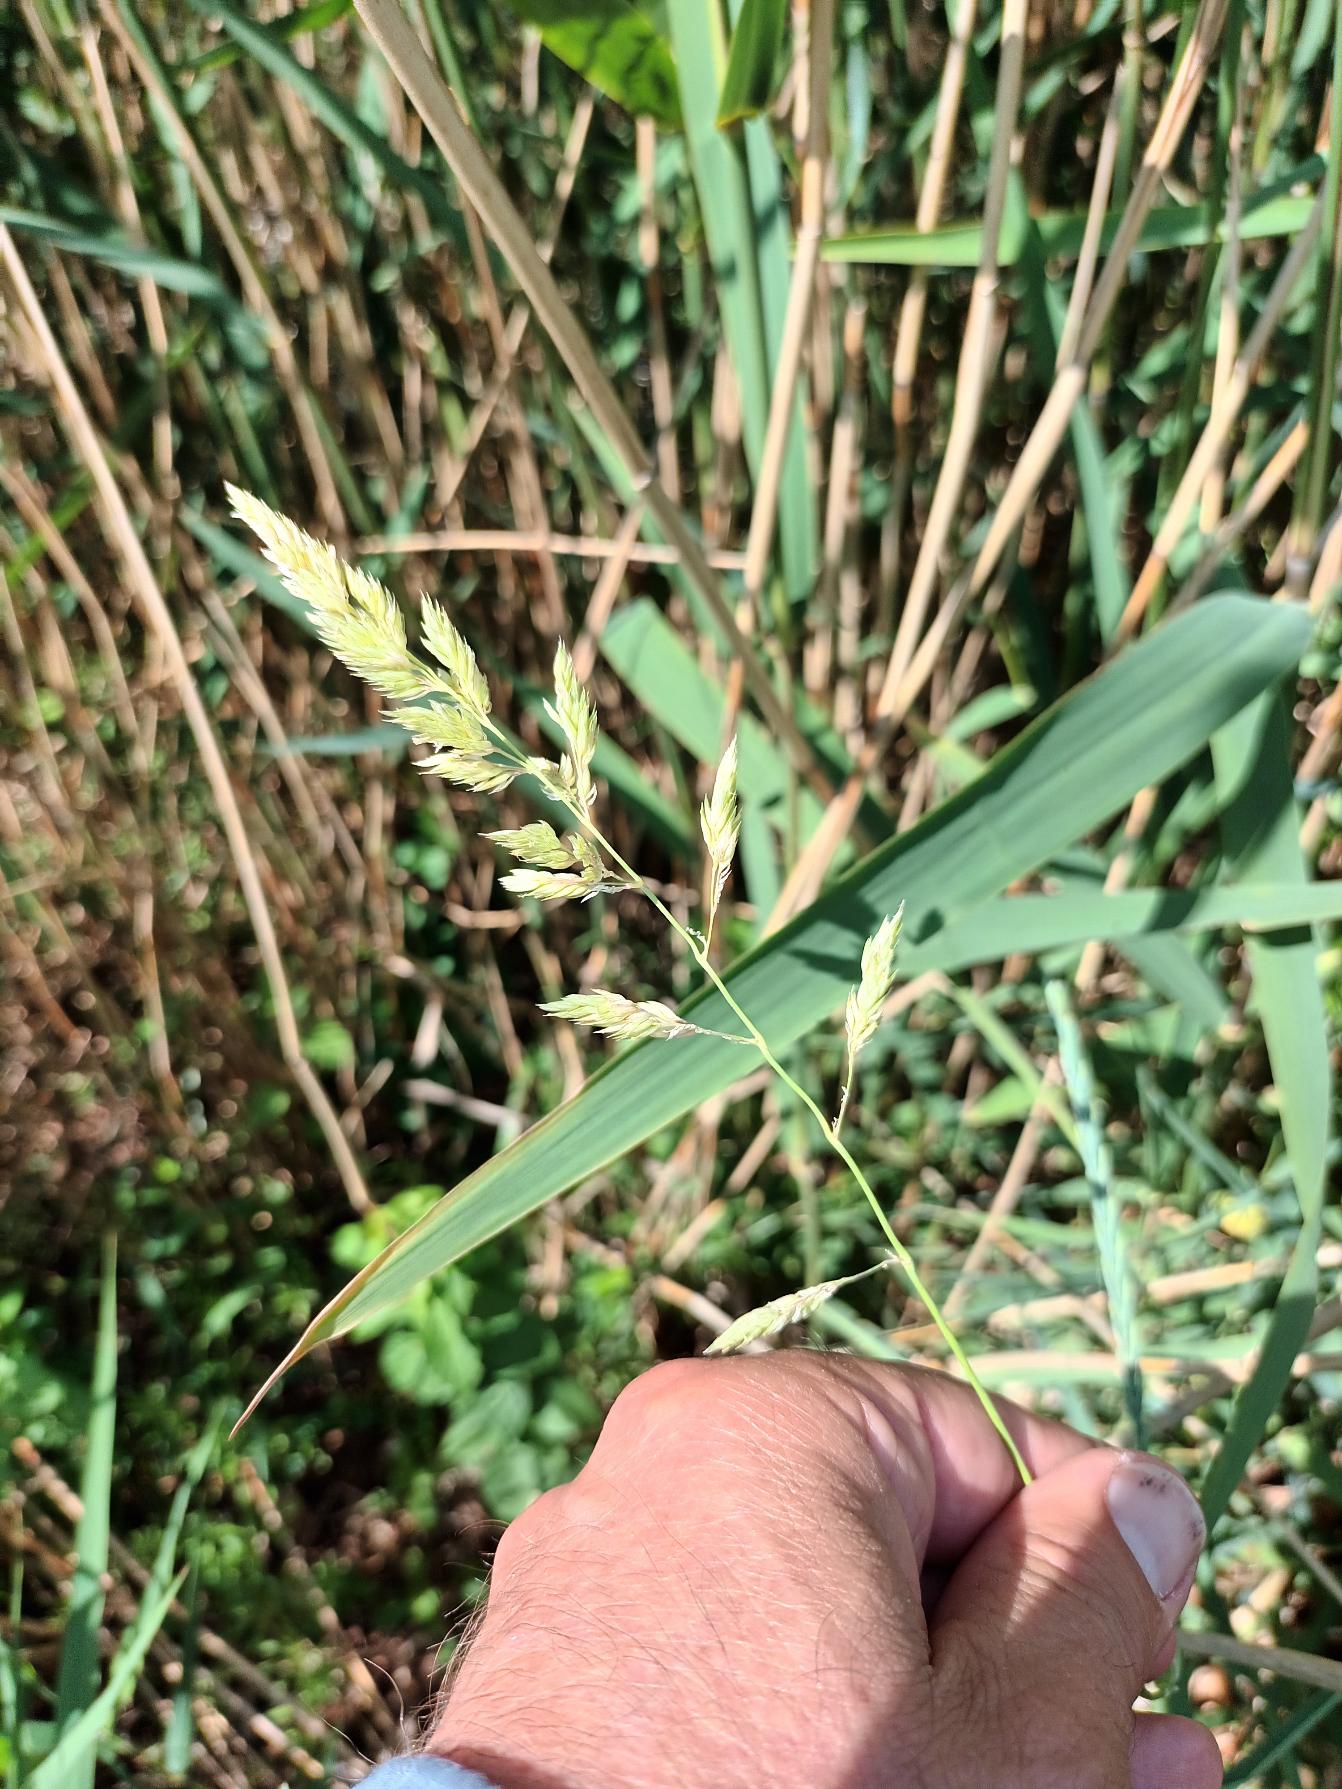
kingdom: Plantae
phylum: Tracheophyta
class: Liliopsida
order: Poales
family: Poaceae
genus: Phalaris
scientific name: Phalaris arundinacea
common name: Rørgræs
